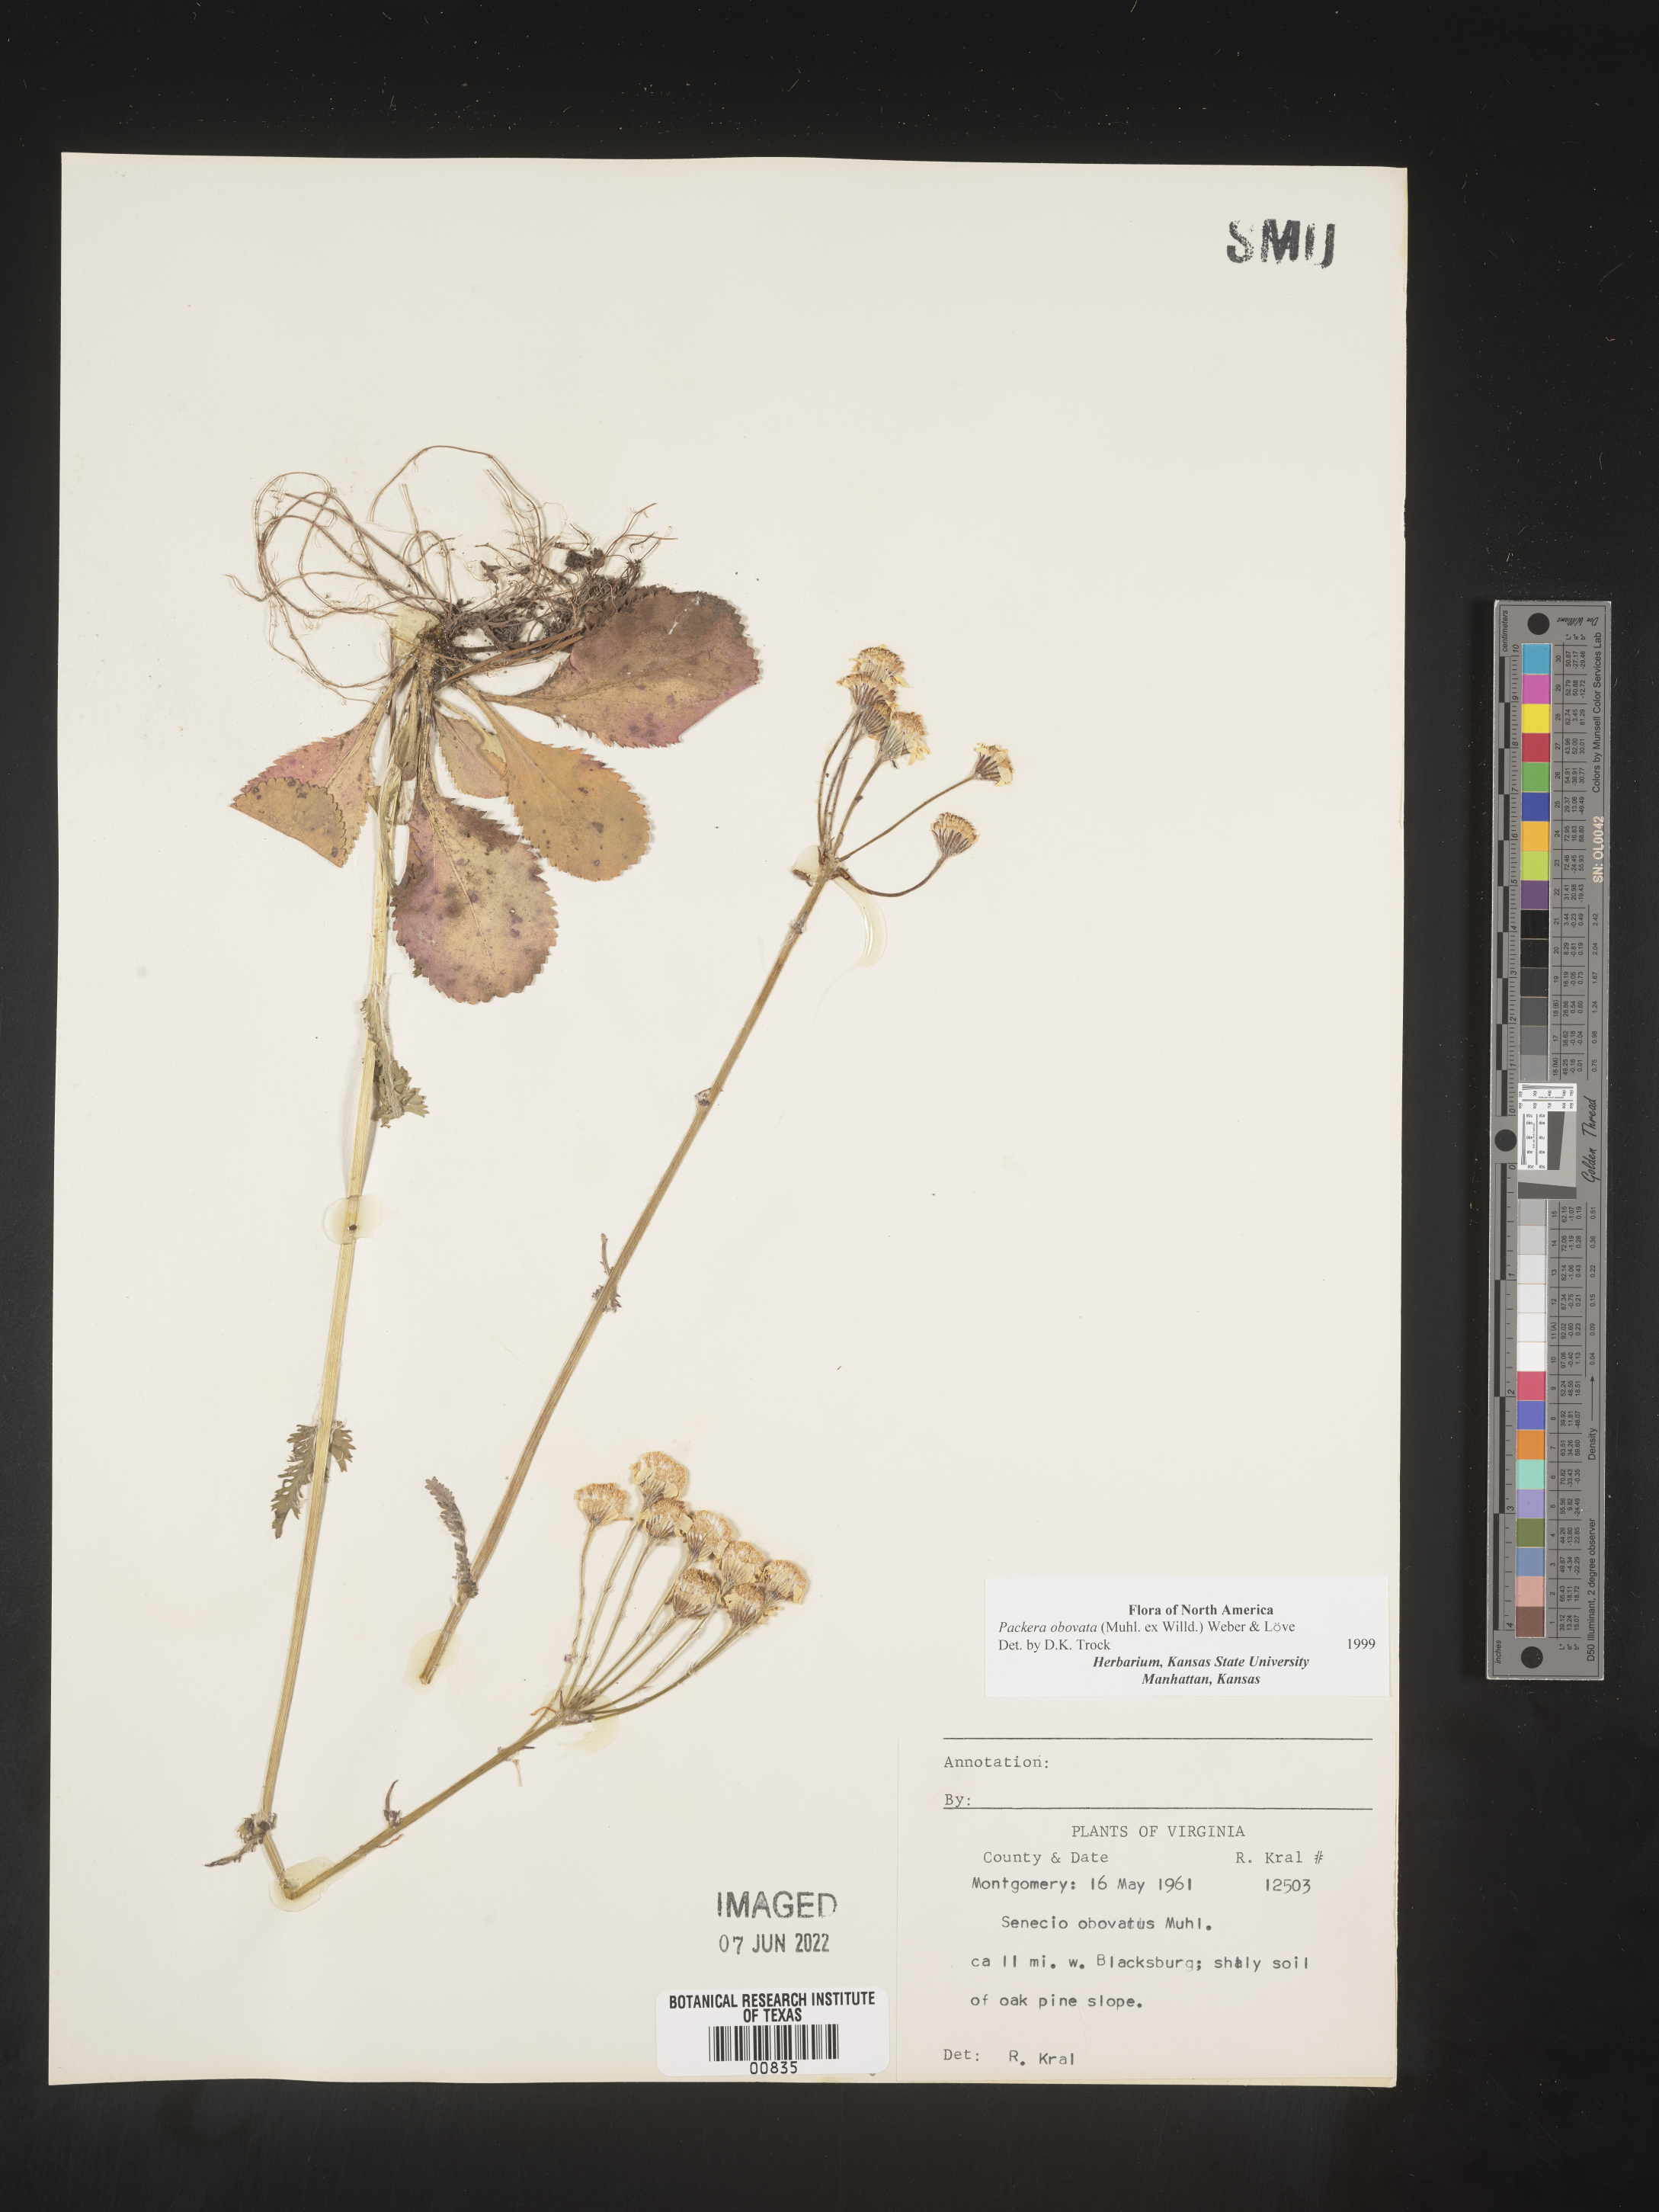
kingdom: Plantae
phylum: Tracheophyta
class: Magnoliopsida
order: Asterales
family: Asteraceae
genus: Packera
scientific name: Packera obovata
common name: Round-leaf ragwort
